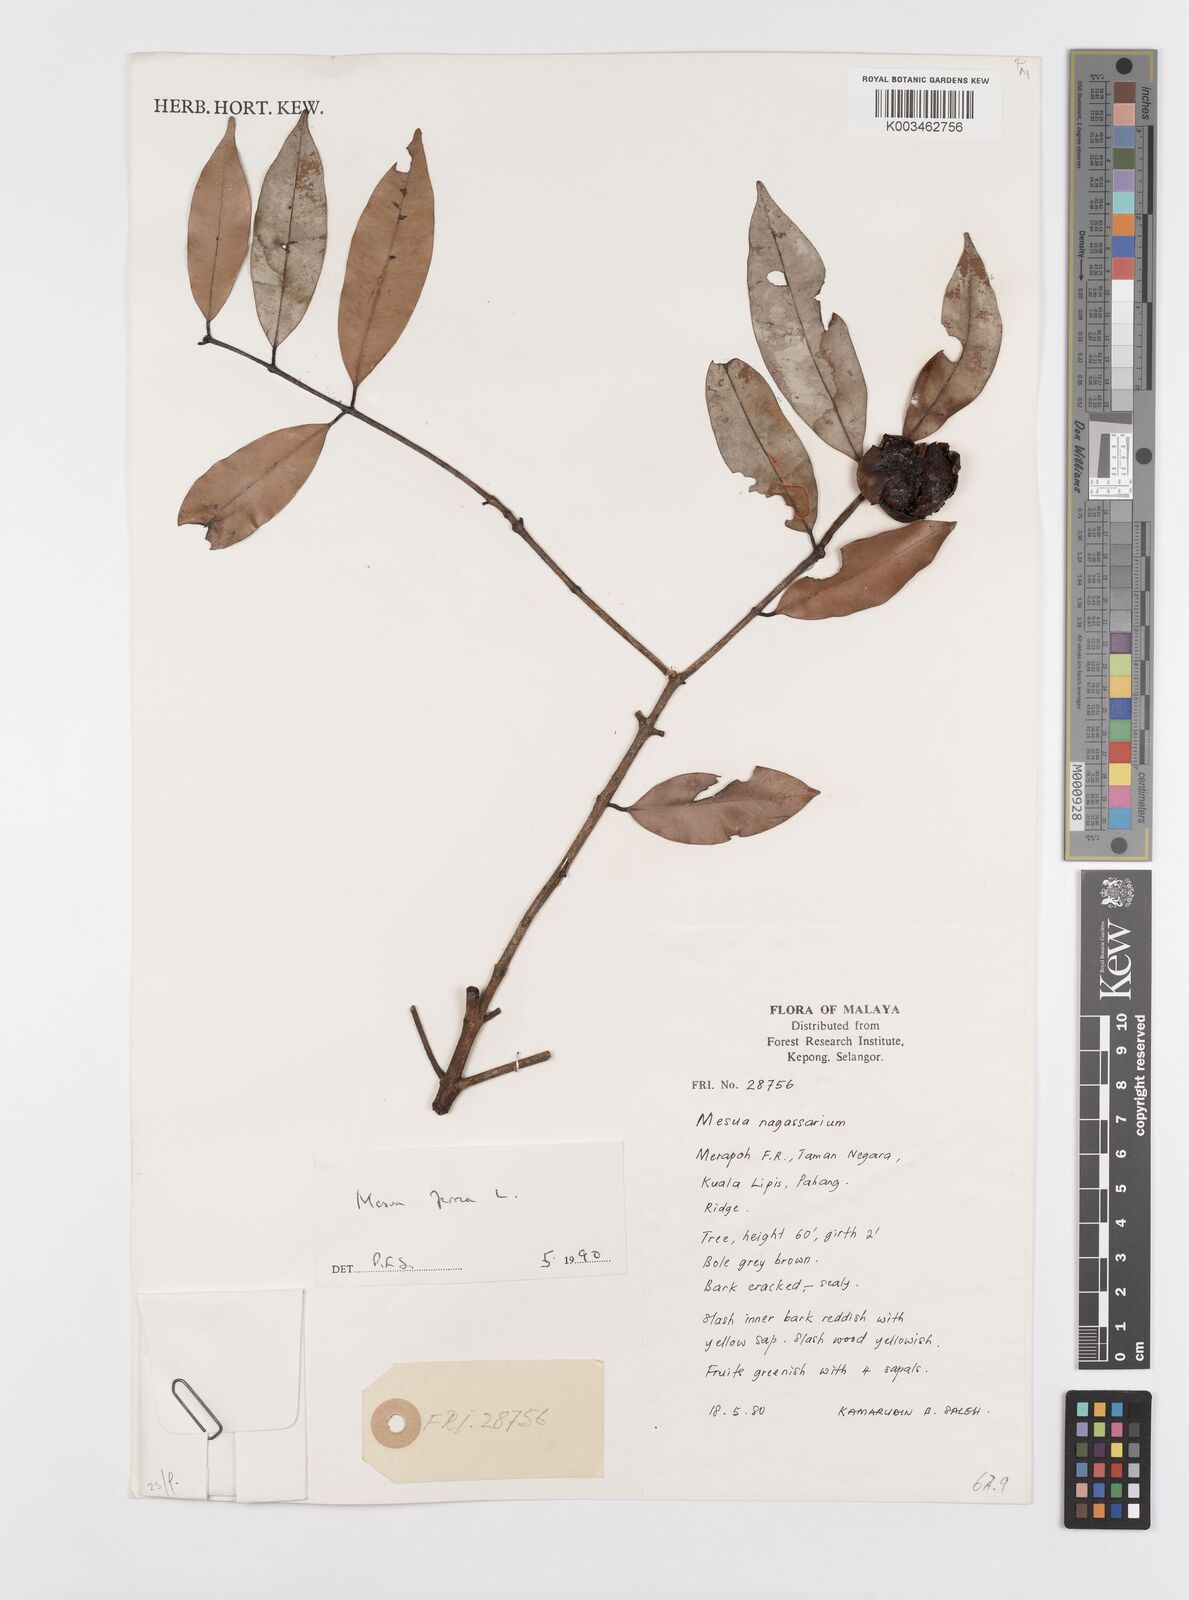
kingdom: Plantae
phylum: Tracheophyta
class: Magnoliopsida
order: Malpighiales
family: Calophyllaceae
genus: Mesua
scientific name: Mesua ferrea
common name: Mesua
